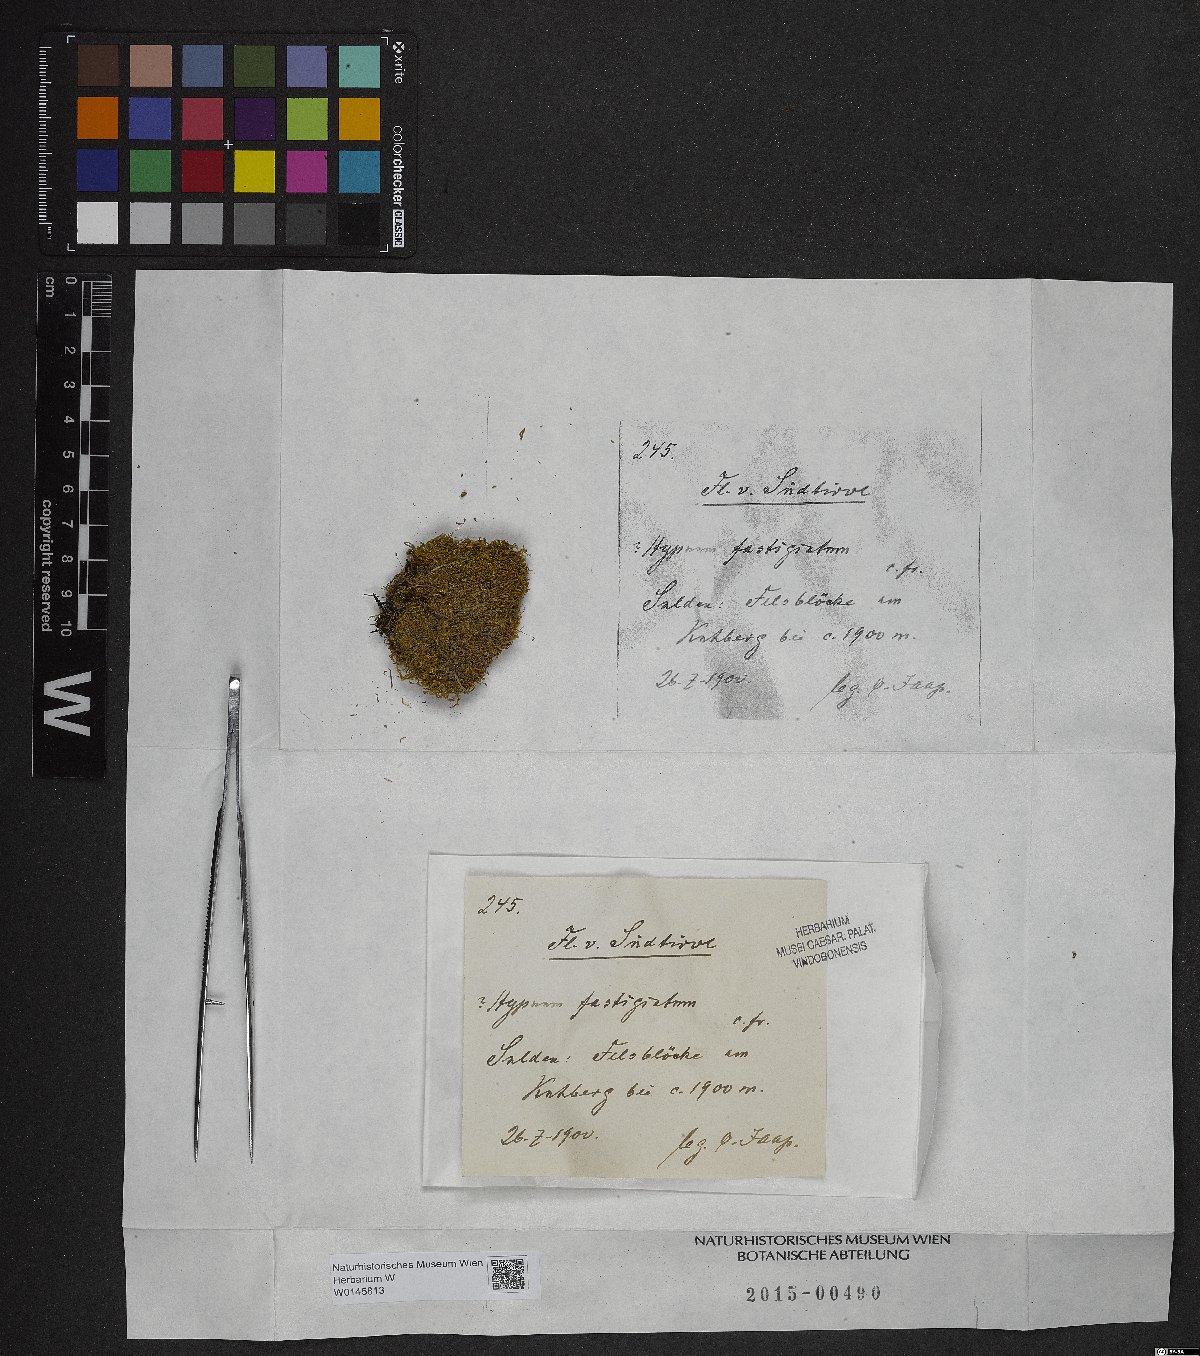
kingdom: Plantae
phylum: Bryophyta
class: Bryopsida
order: Hypnales
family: Amblystegiaceae
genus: Drepanium
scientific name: Drepanium fastigiatum
